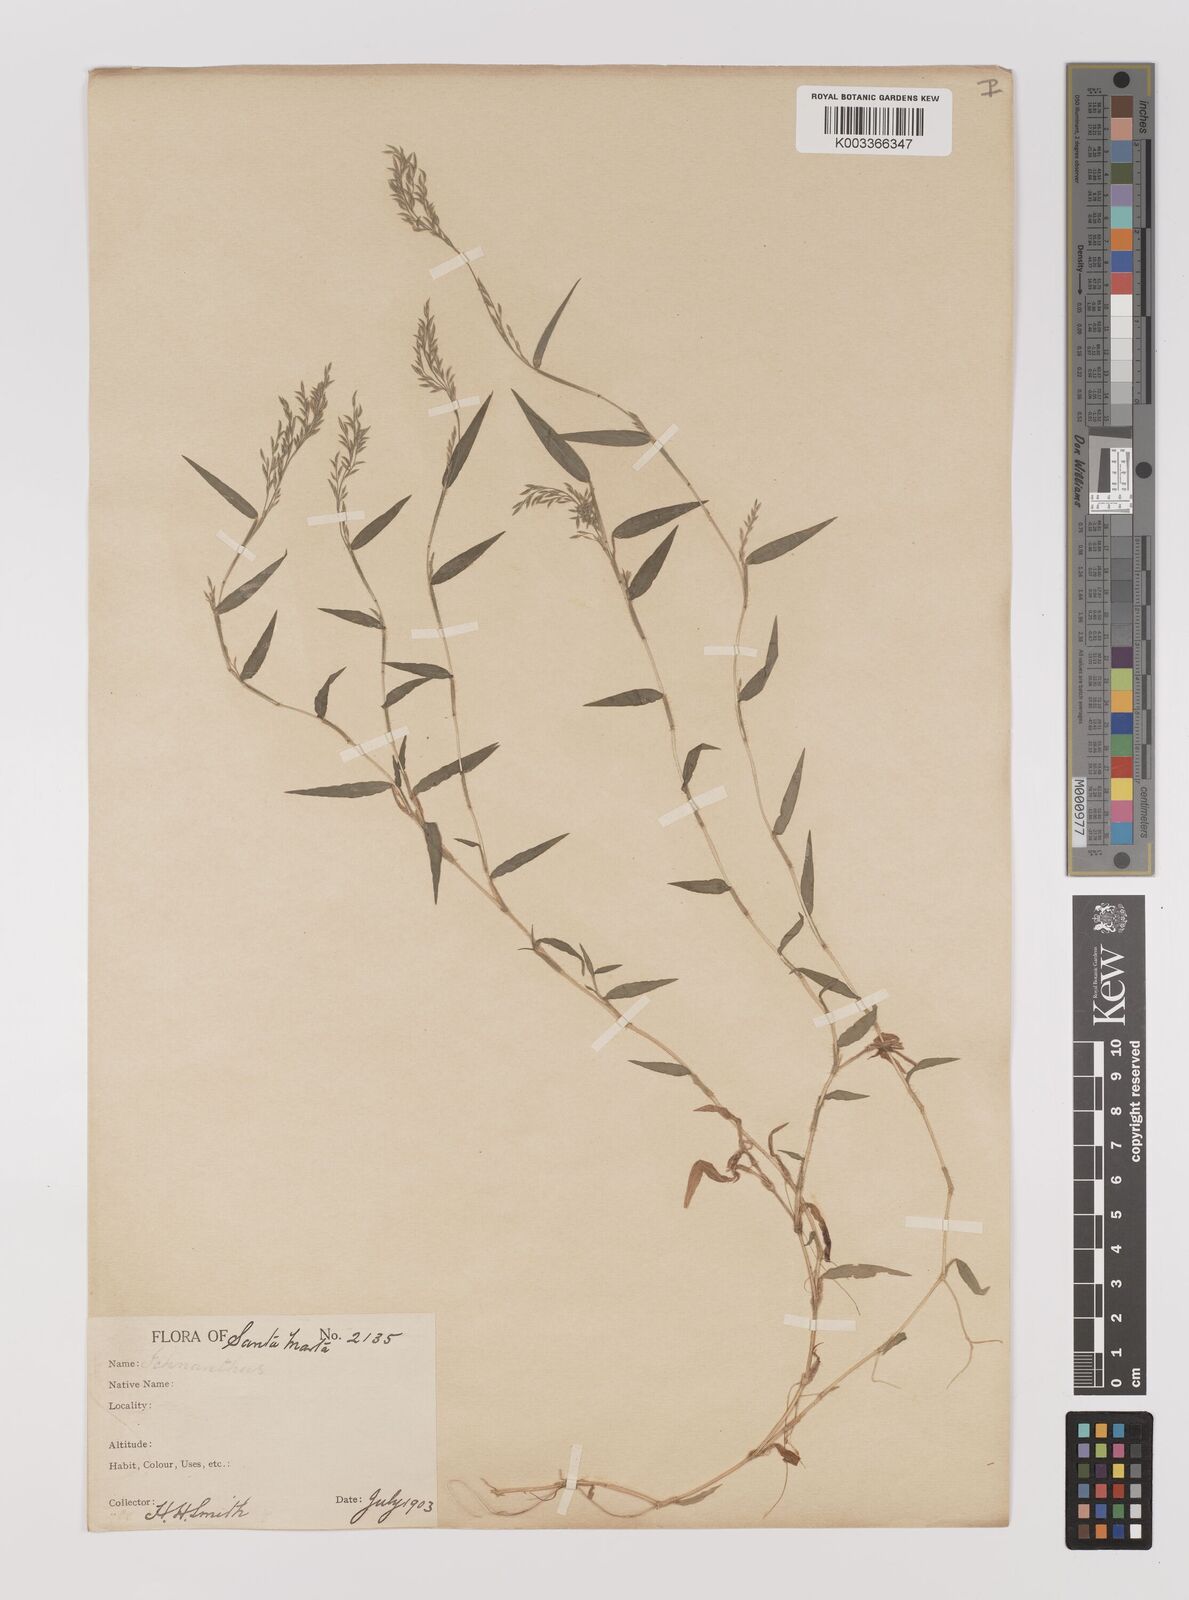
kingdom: Plantae
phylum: Tracheophyta
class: Liliopsida
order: Poales
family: Poaceae
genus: Ichnanthus
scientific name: Ichnanthus tenuis
